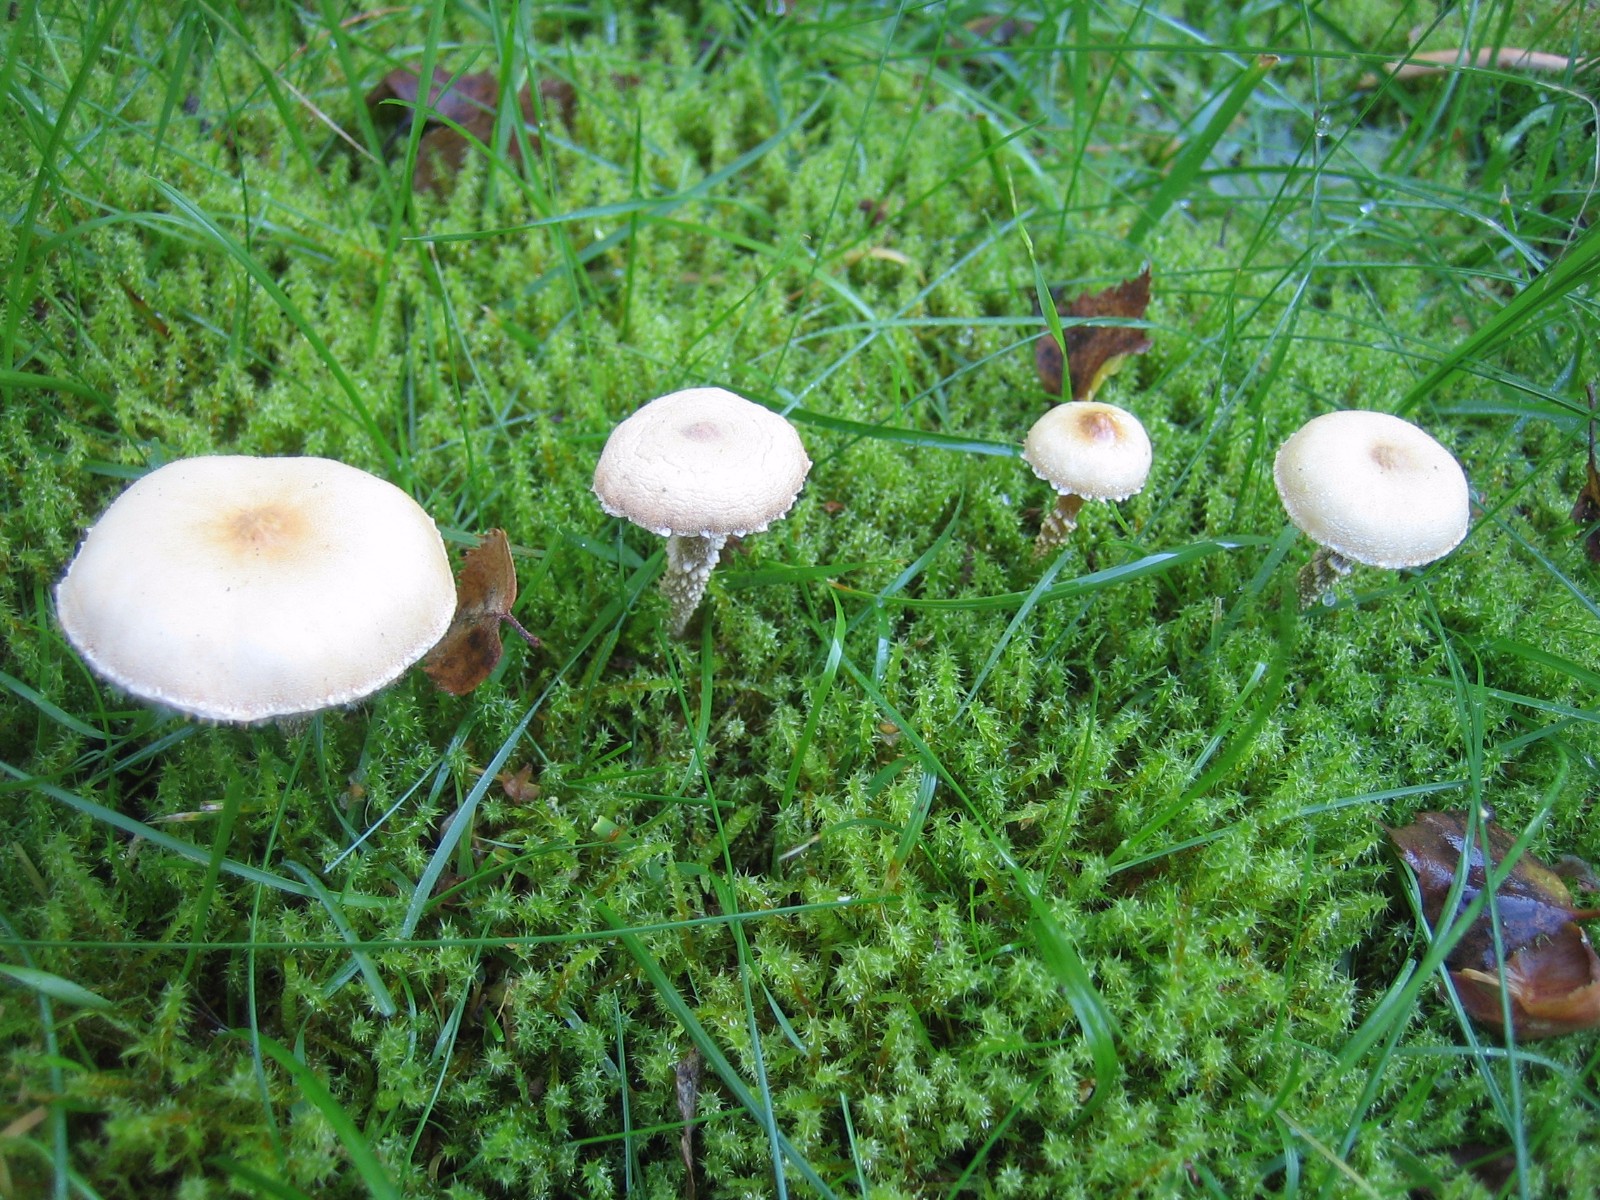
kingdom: Fungi
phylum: Basidiomycota
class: Agaricomycetes
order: Agaricales
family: Tricholomataceae
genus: Cystoderma
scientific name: Cystoderma amianthinum
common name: okkergul grynhat
